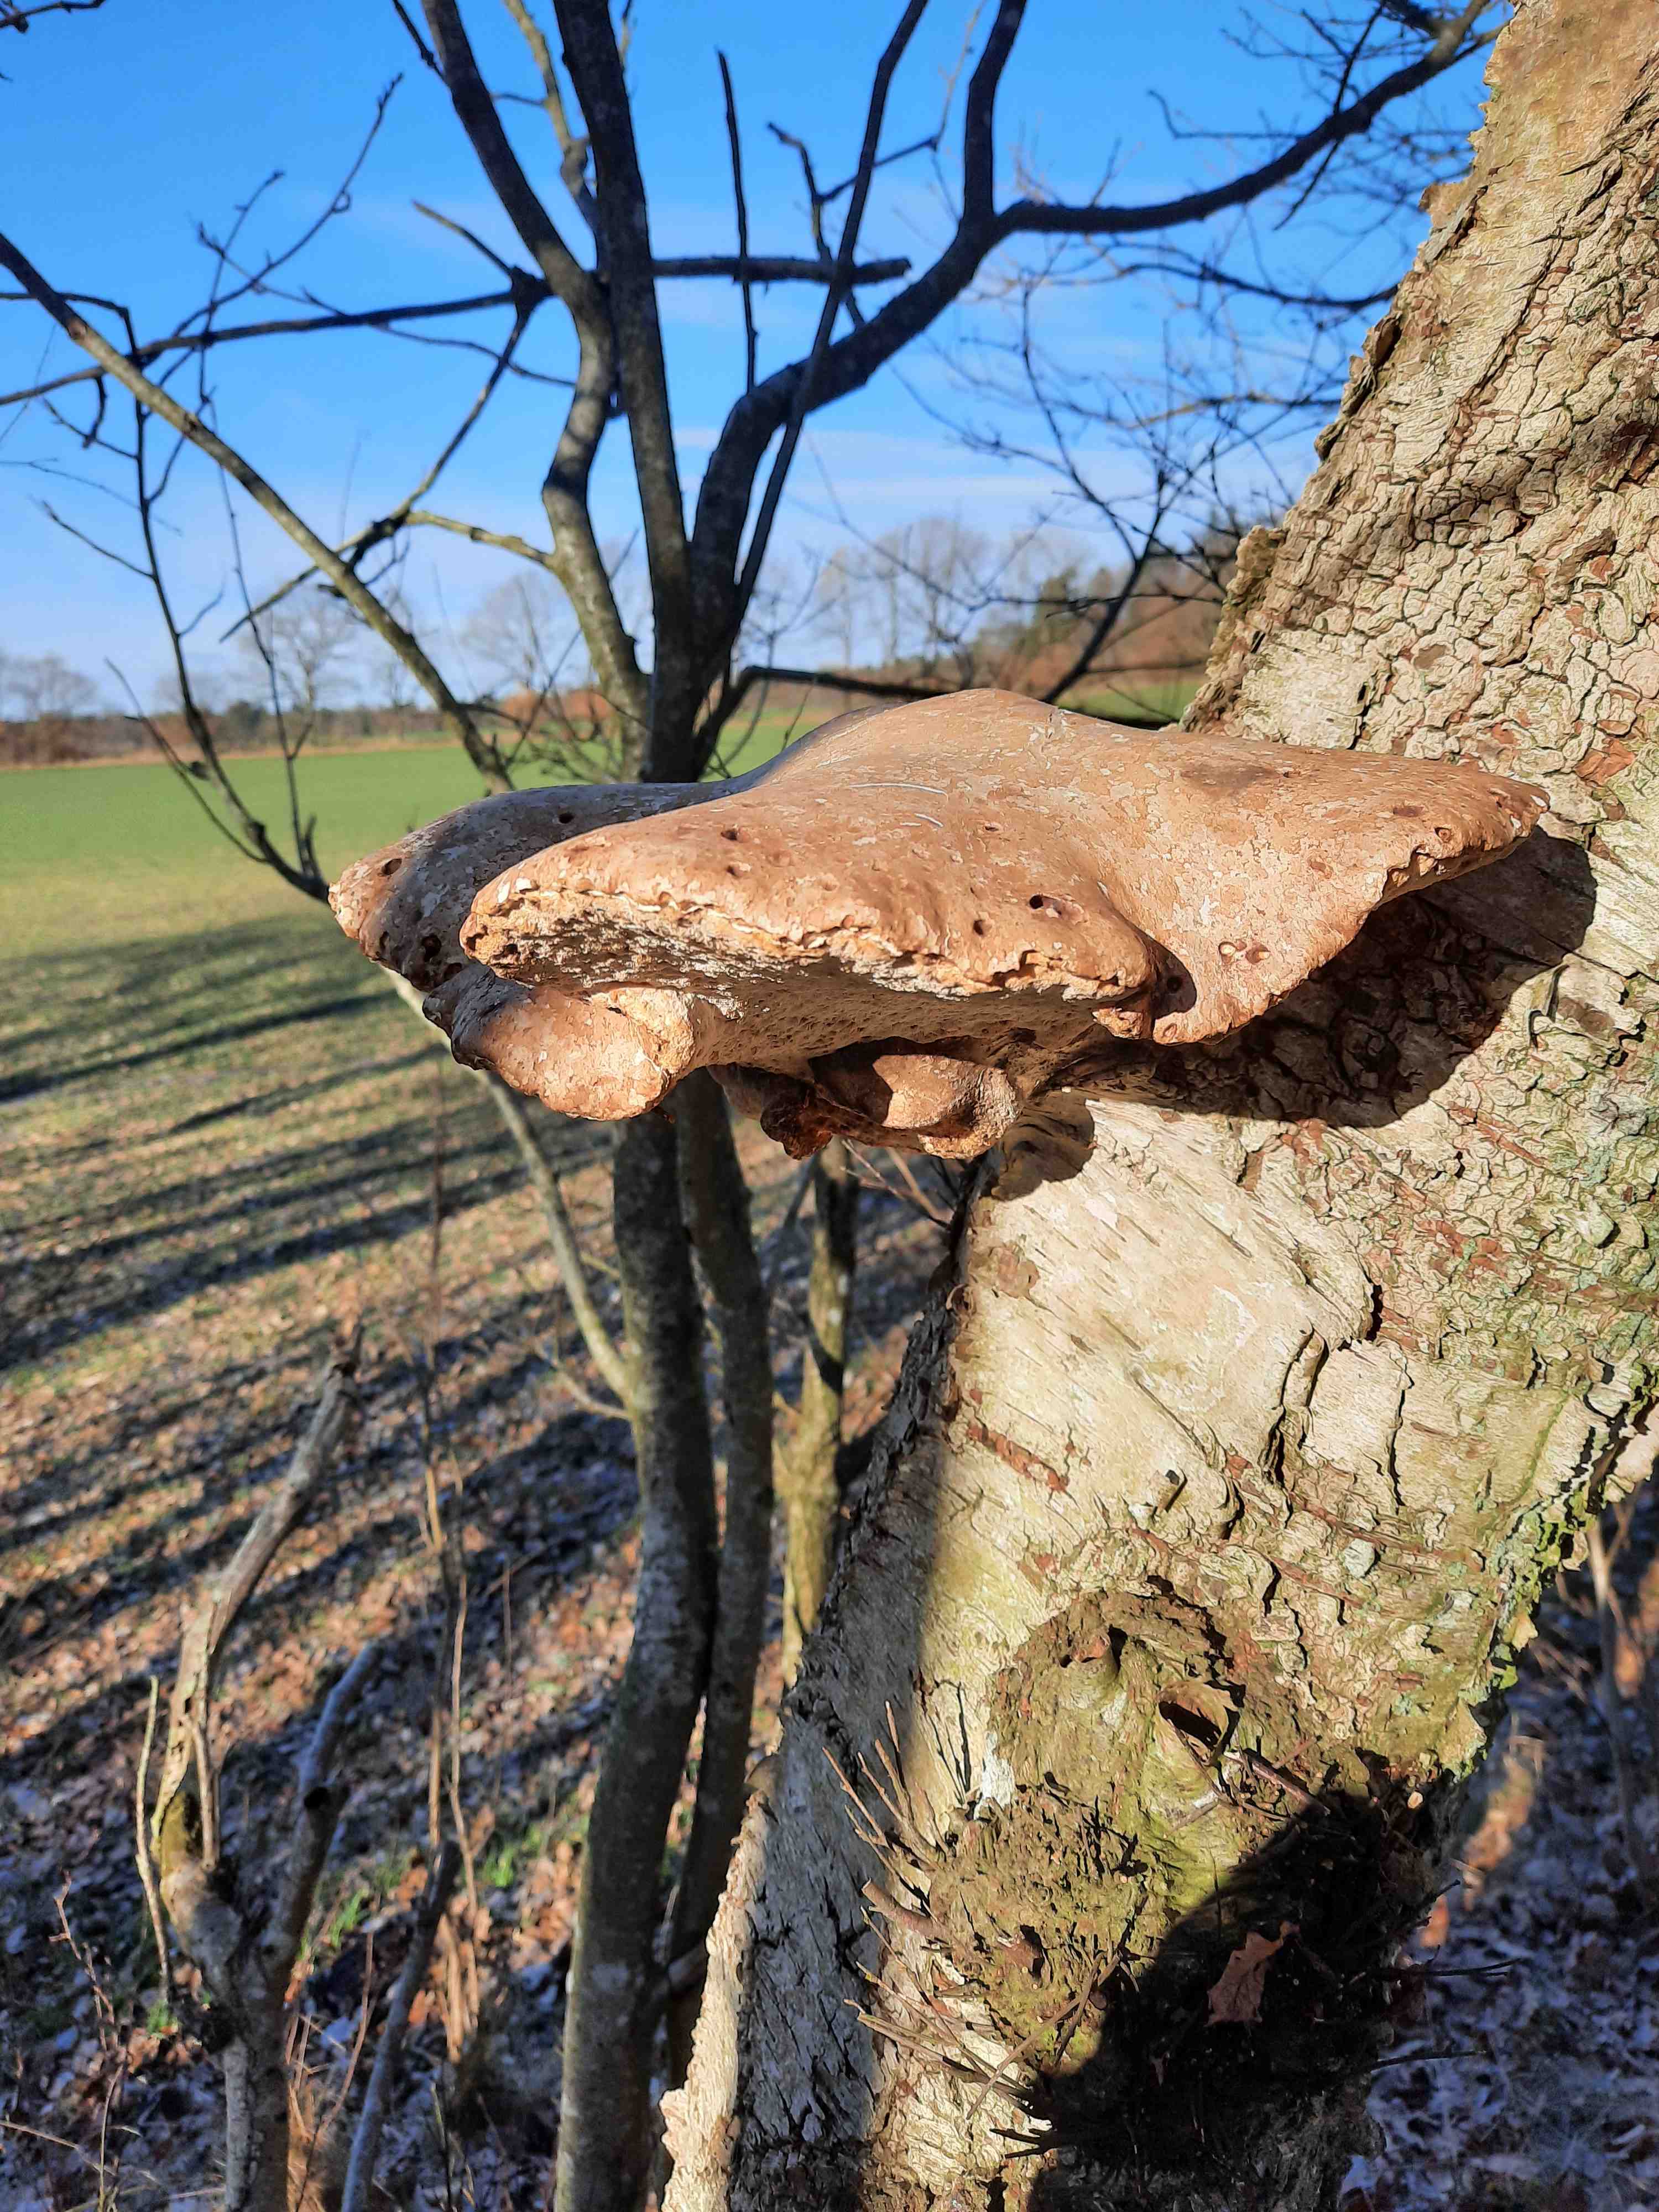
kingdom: Fungi
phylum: Basidiomycota
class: Agaricomycetes
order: Polyporales
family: Fomitopsidaceae
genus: Fomitopsis
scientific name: Fomitopsis betulina
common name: birkeporesvamp
